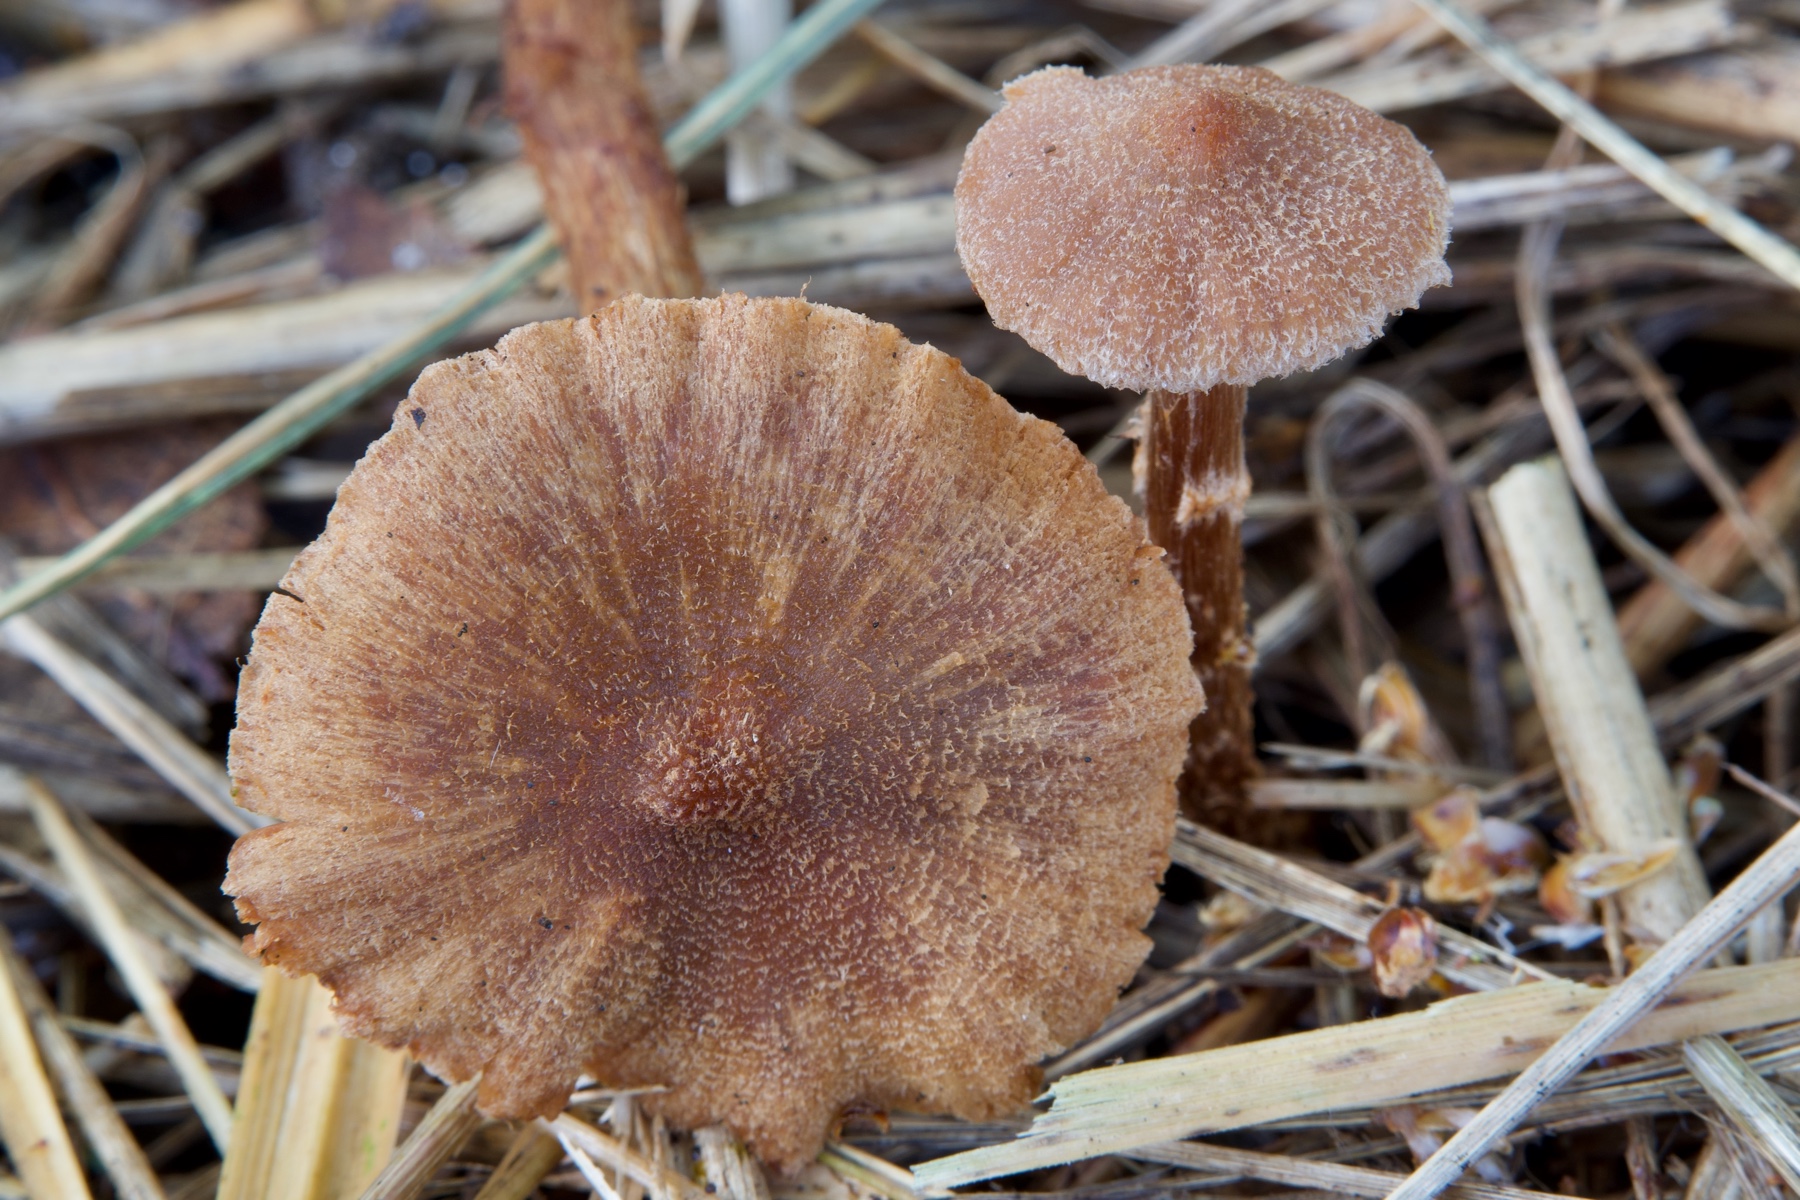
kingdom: Fungi
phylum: Basidiomycota
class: Agaricomycetes
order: Agaricales
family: Cortinariaceae
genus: Cortinarius
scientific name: Cortinarius
